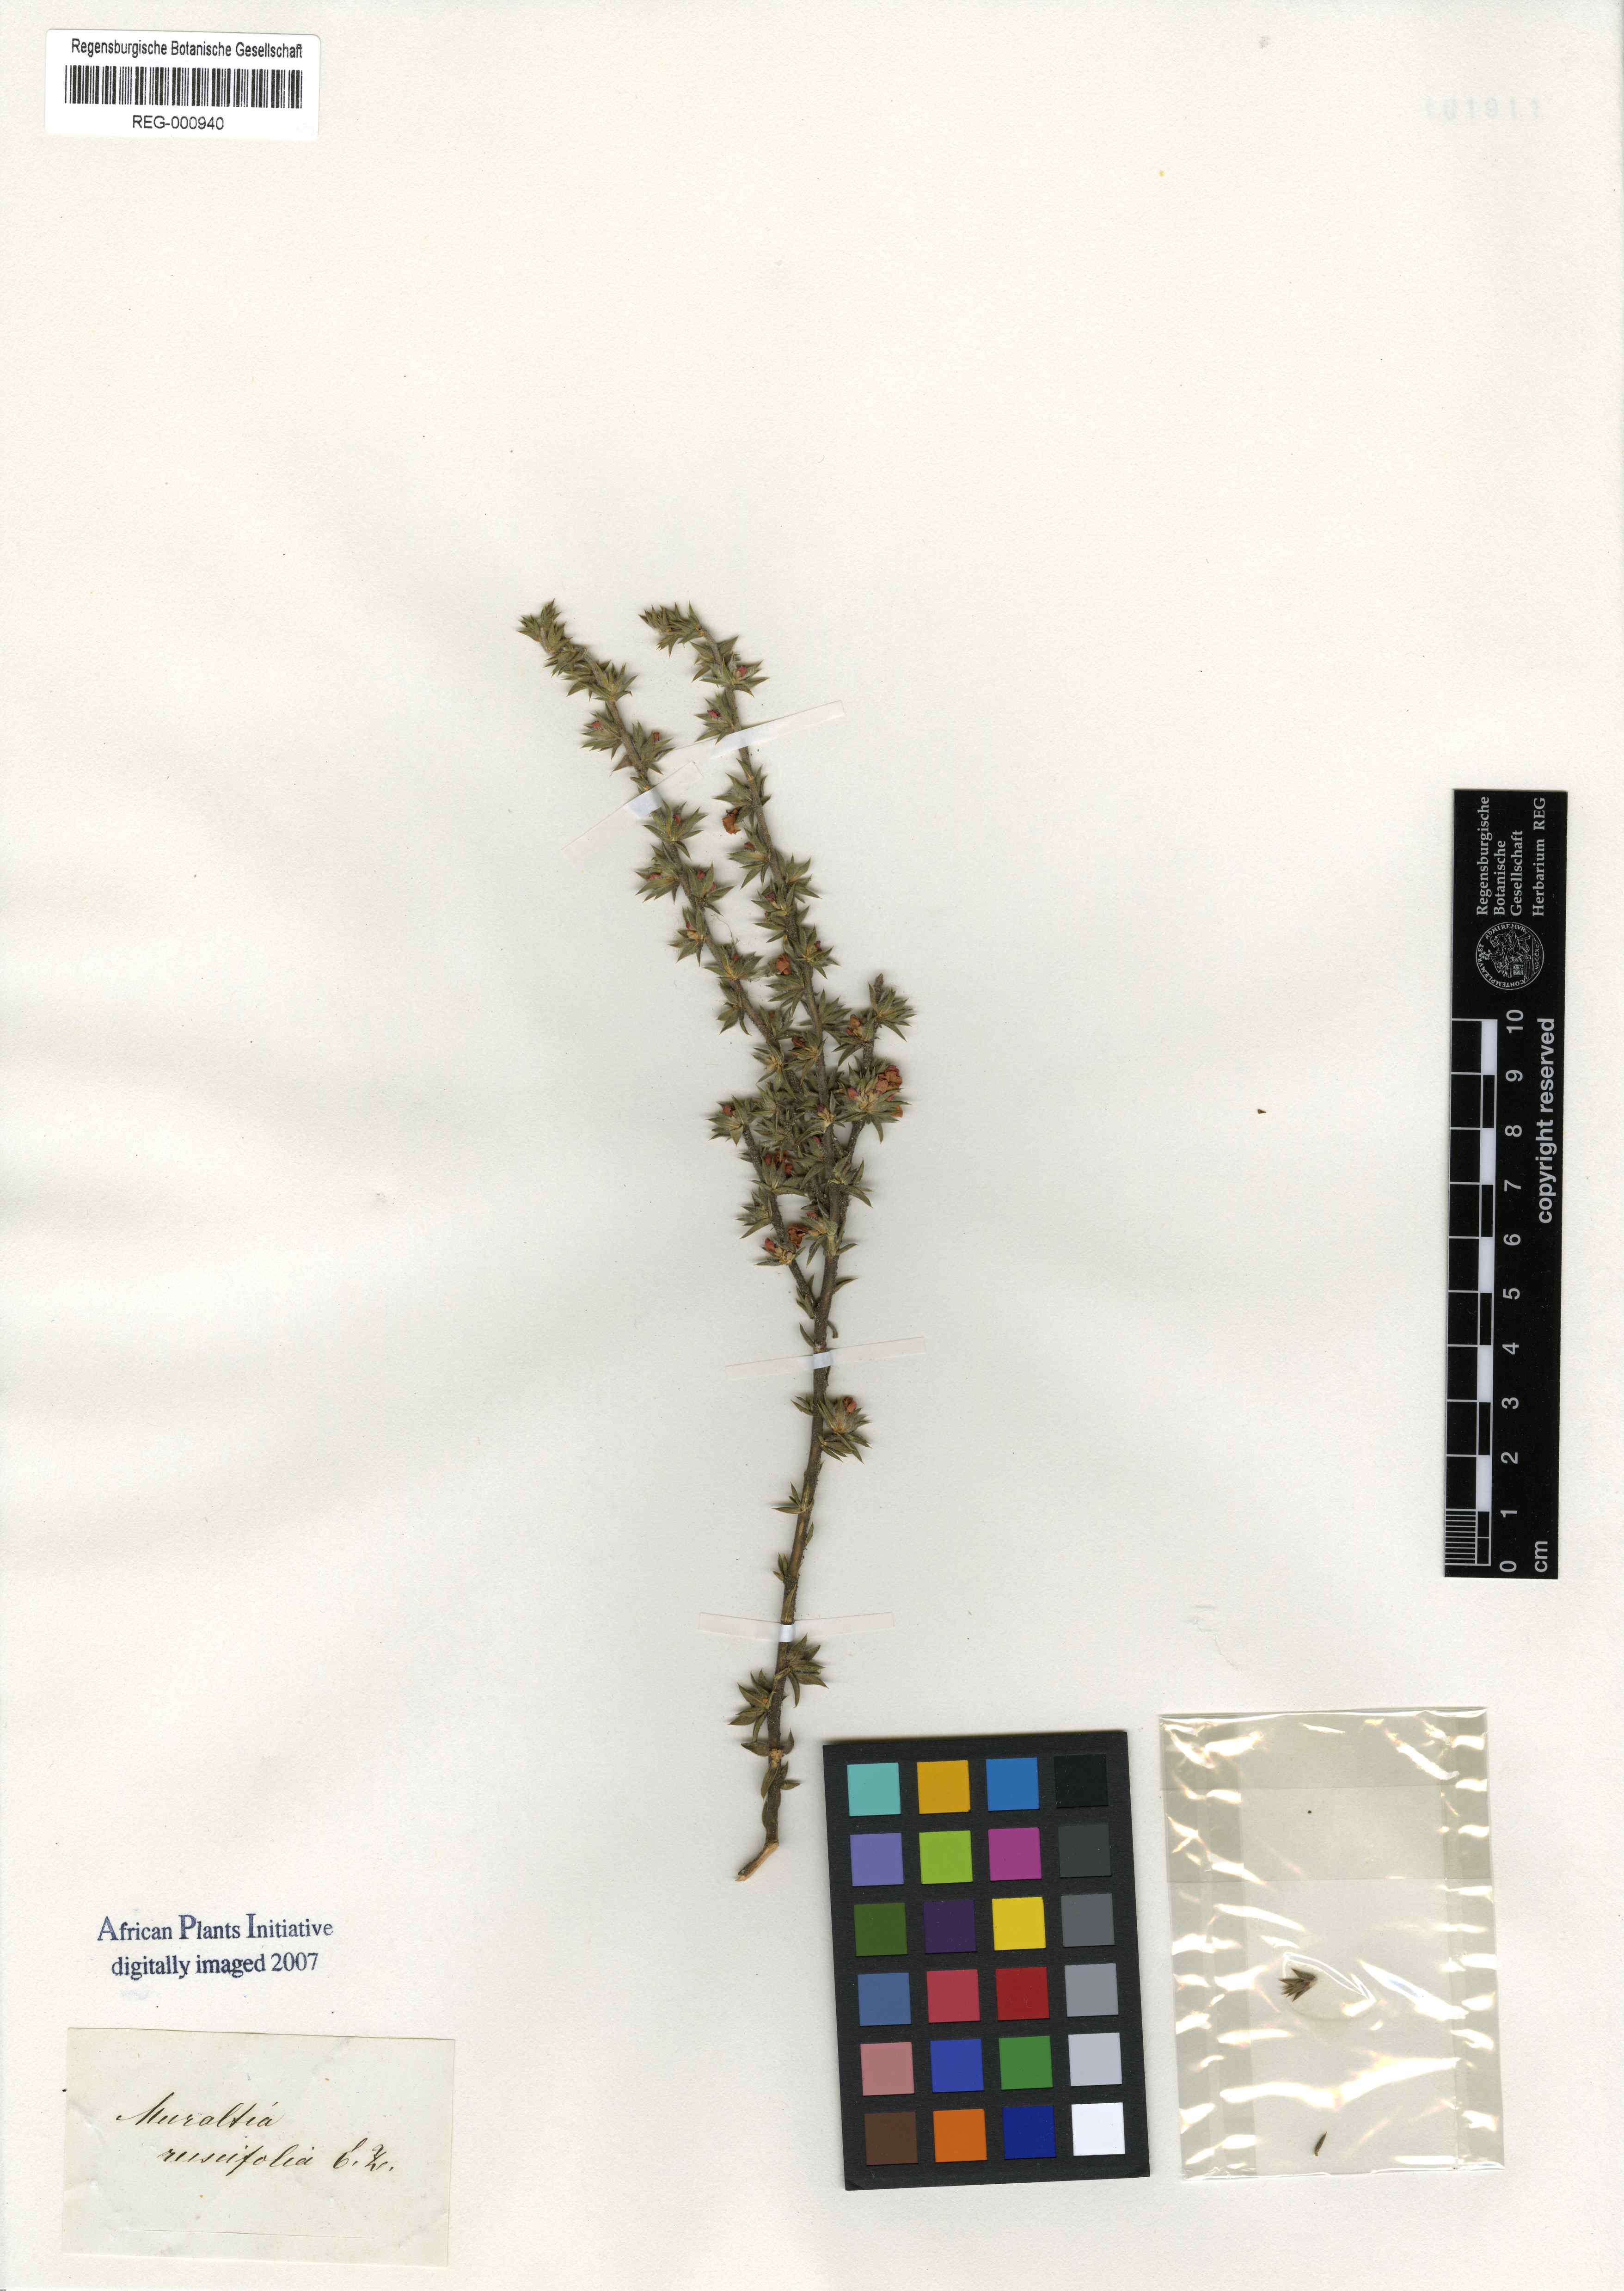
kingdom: Plantae
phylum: Tracheophyta
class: Magnoliopsida
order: Fabales
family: Polygalaceae
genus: Muraltia
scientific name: Muraltia squarrosa
